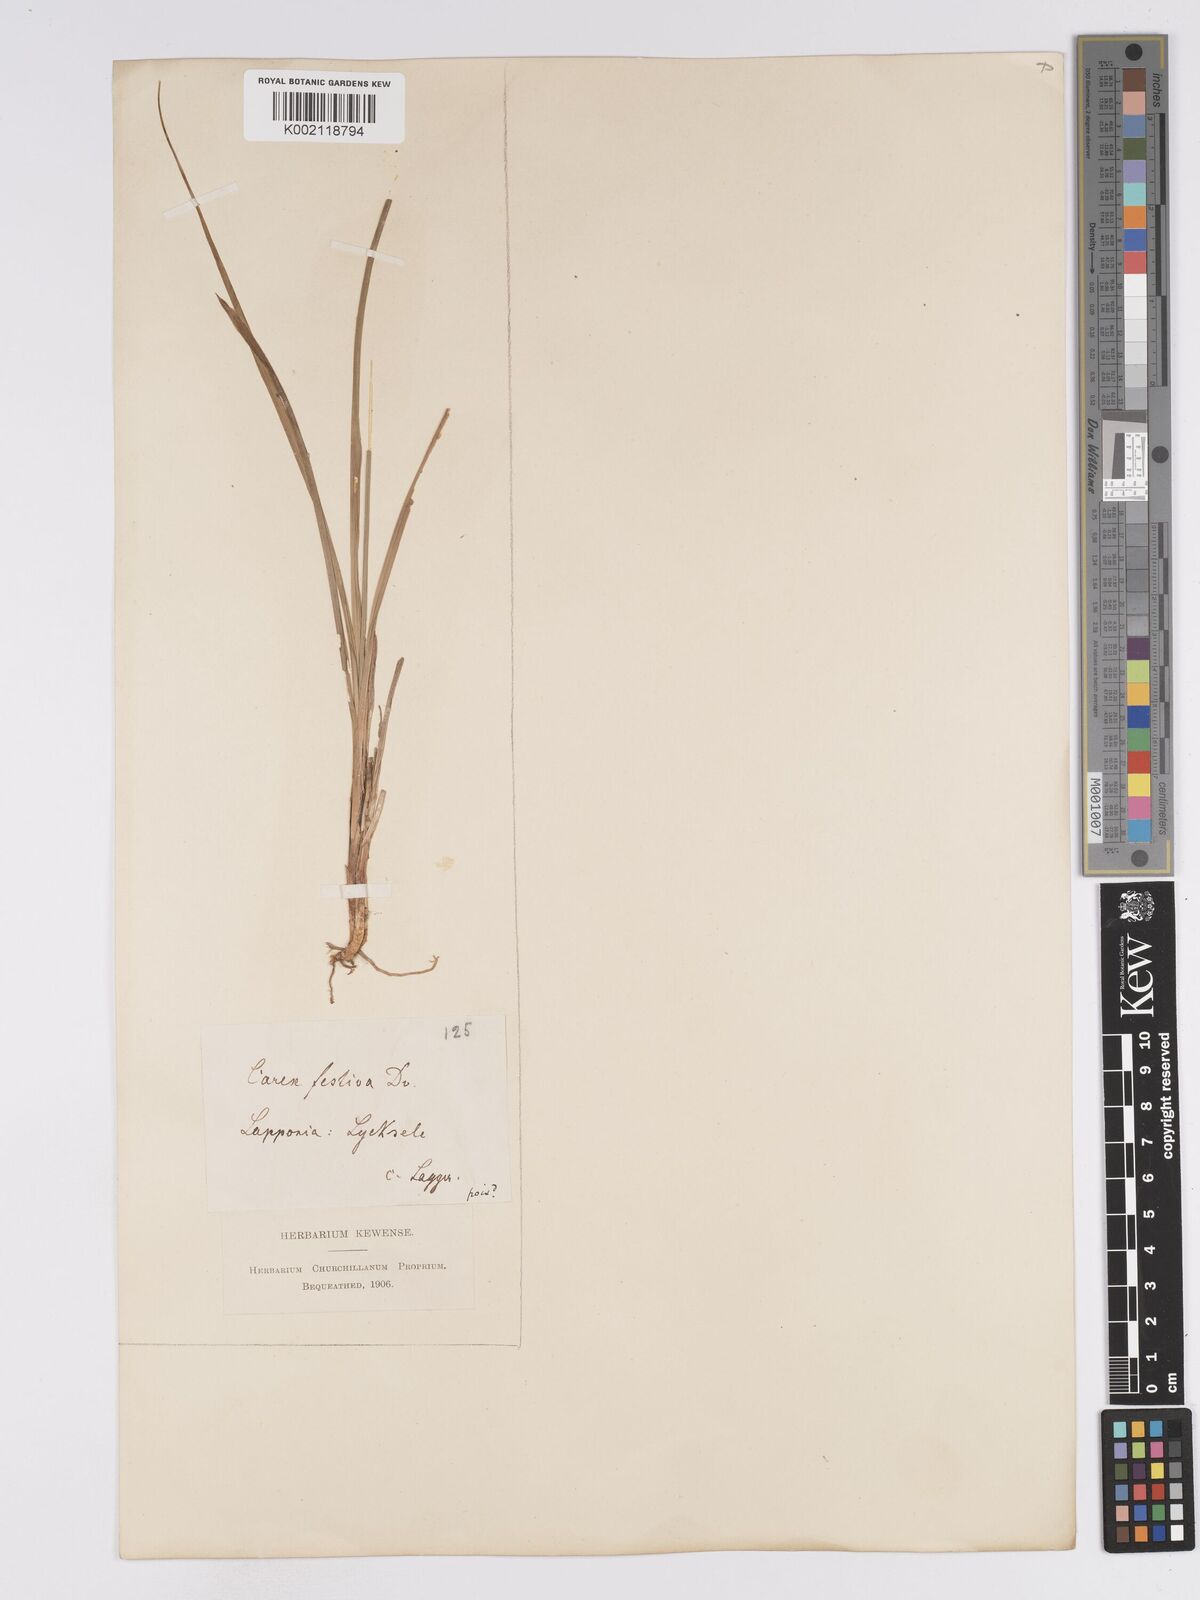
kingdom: Plantae
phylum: Tracheophyta
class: Liliopsida
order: Poales
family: Cyperaceae
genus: Carex
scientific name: Carex macloviana
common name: Falkland island sedge
